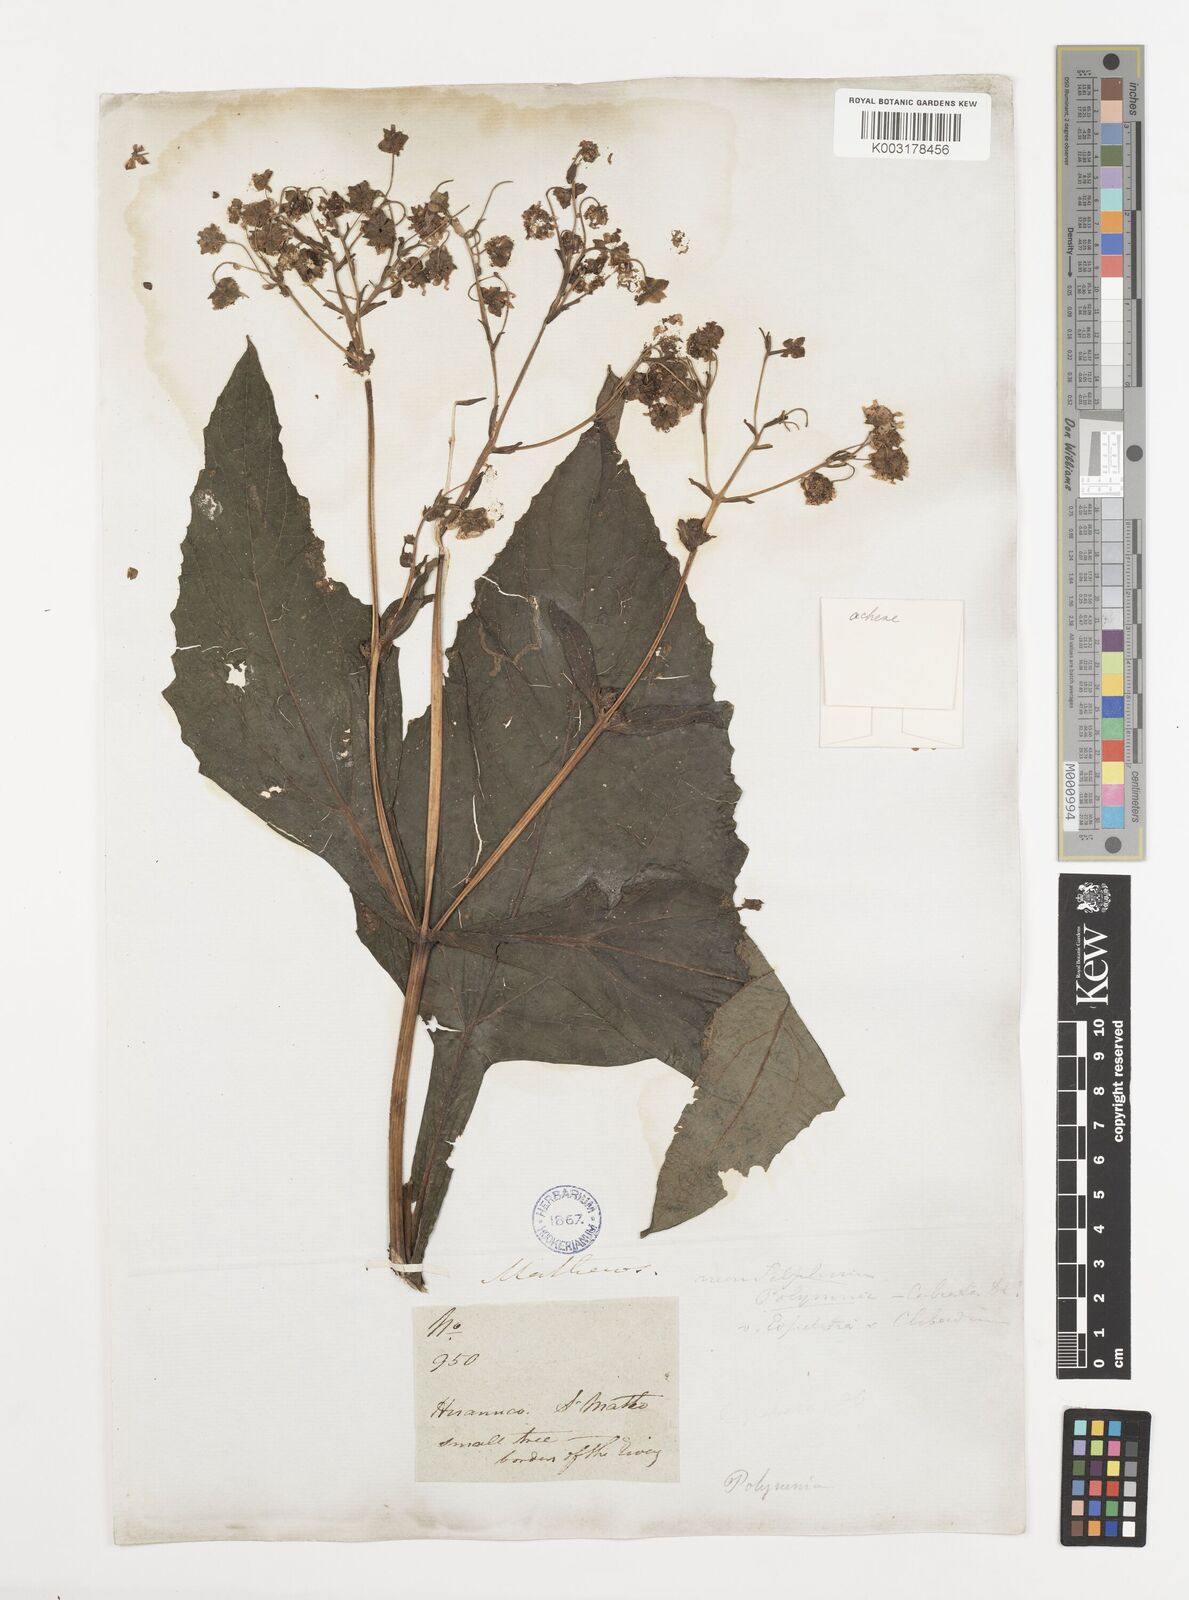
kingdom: Plantae
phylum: Tracheophyta
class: Magnoliopsida
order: Asterales
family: Asteraceae
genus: Smallanthus
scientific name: Smallanthus glabratus
